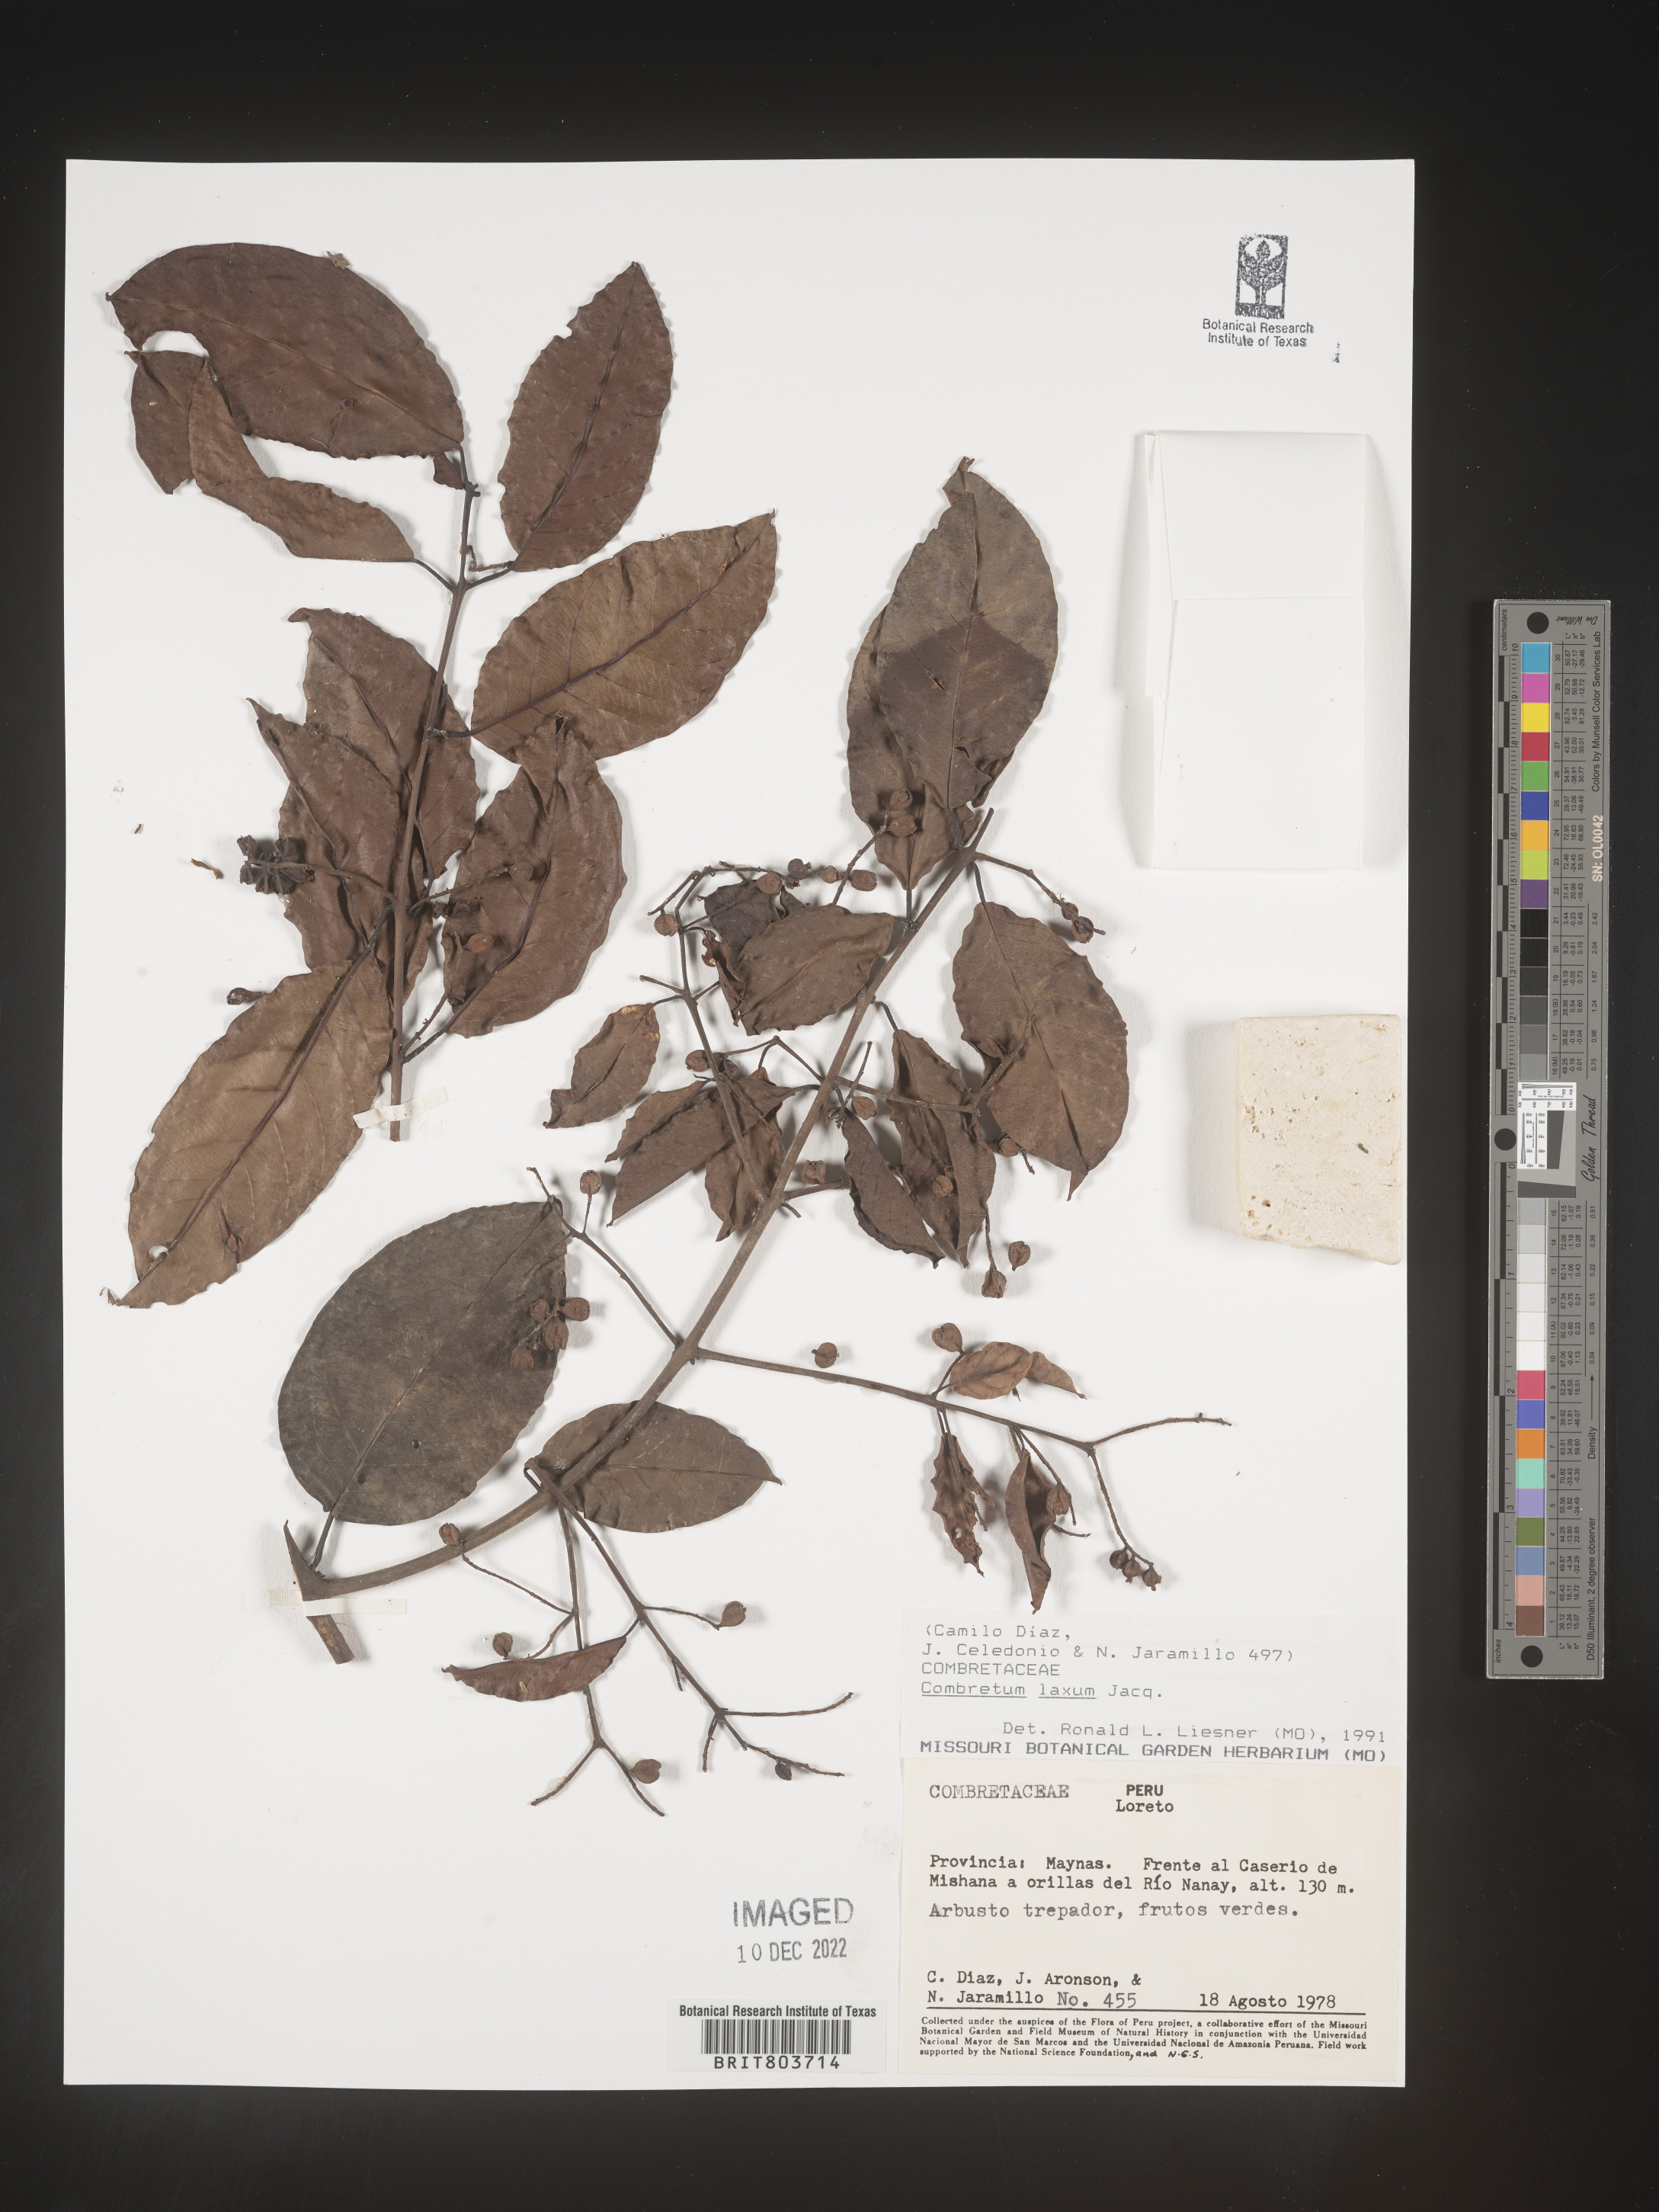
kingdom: Plantae
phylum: Tracheophyta
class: Magnoliopsida
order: Myrtales
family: Combretaceae
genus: Combretum
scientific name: Combretum
